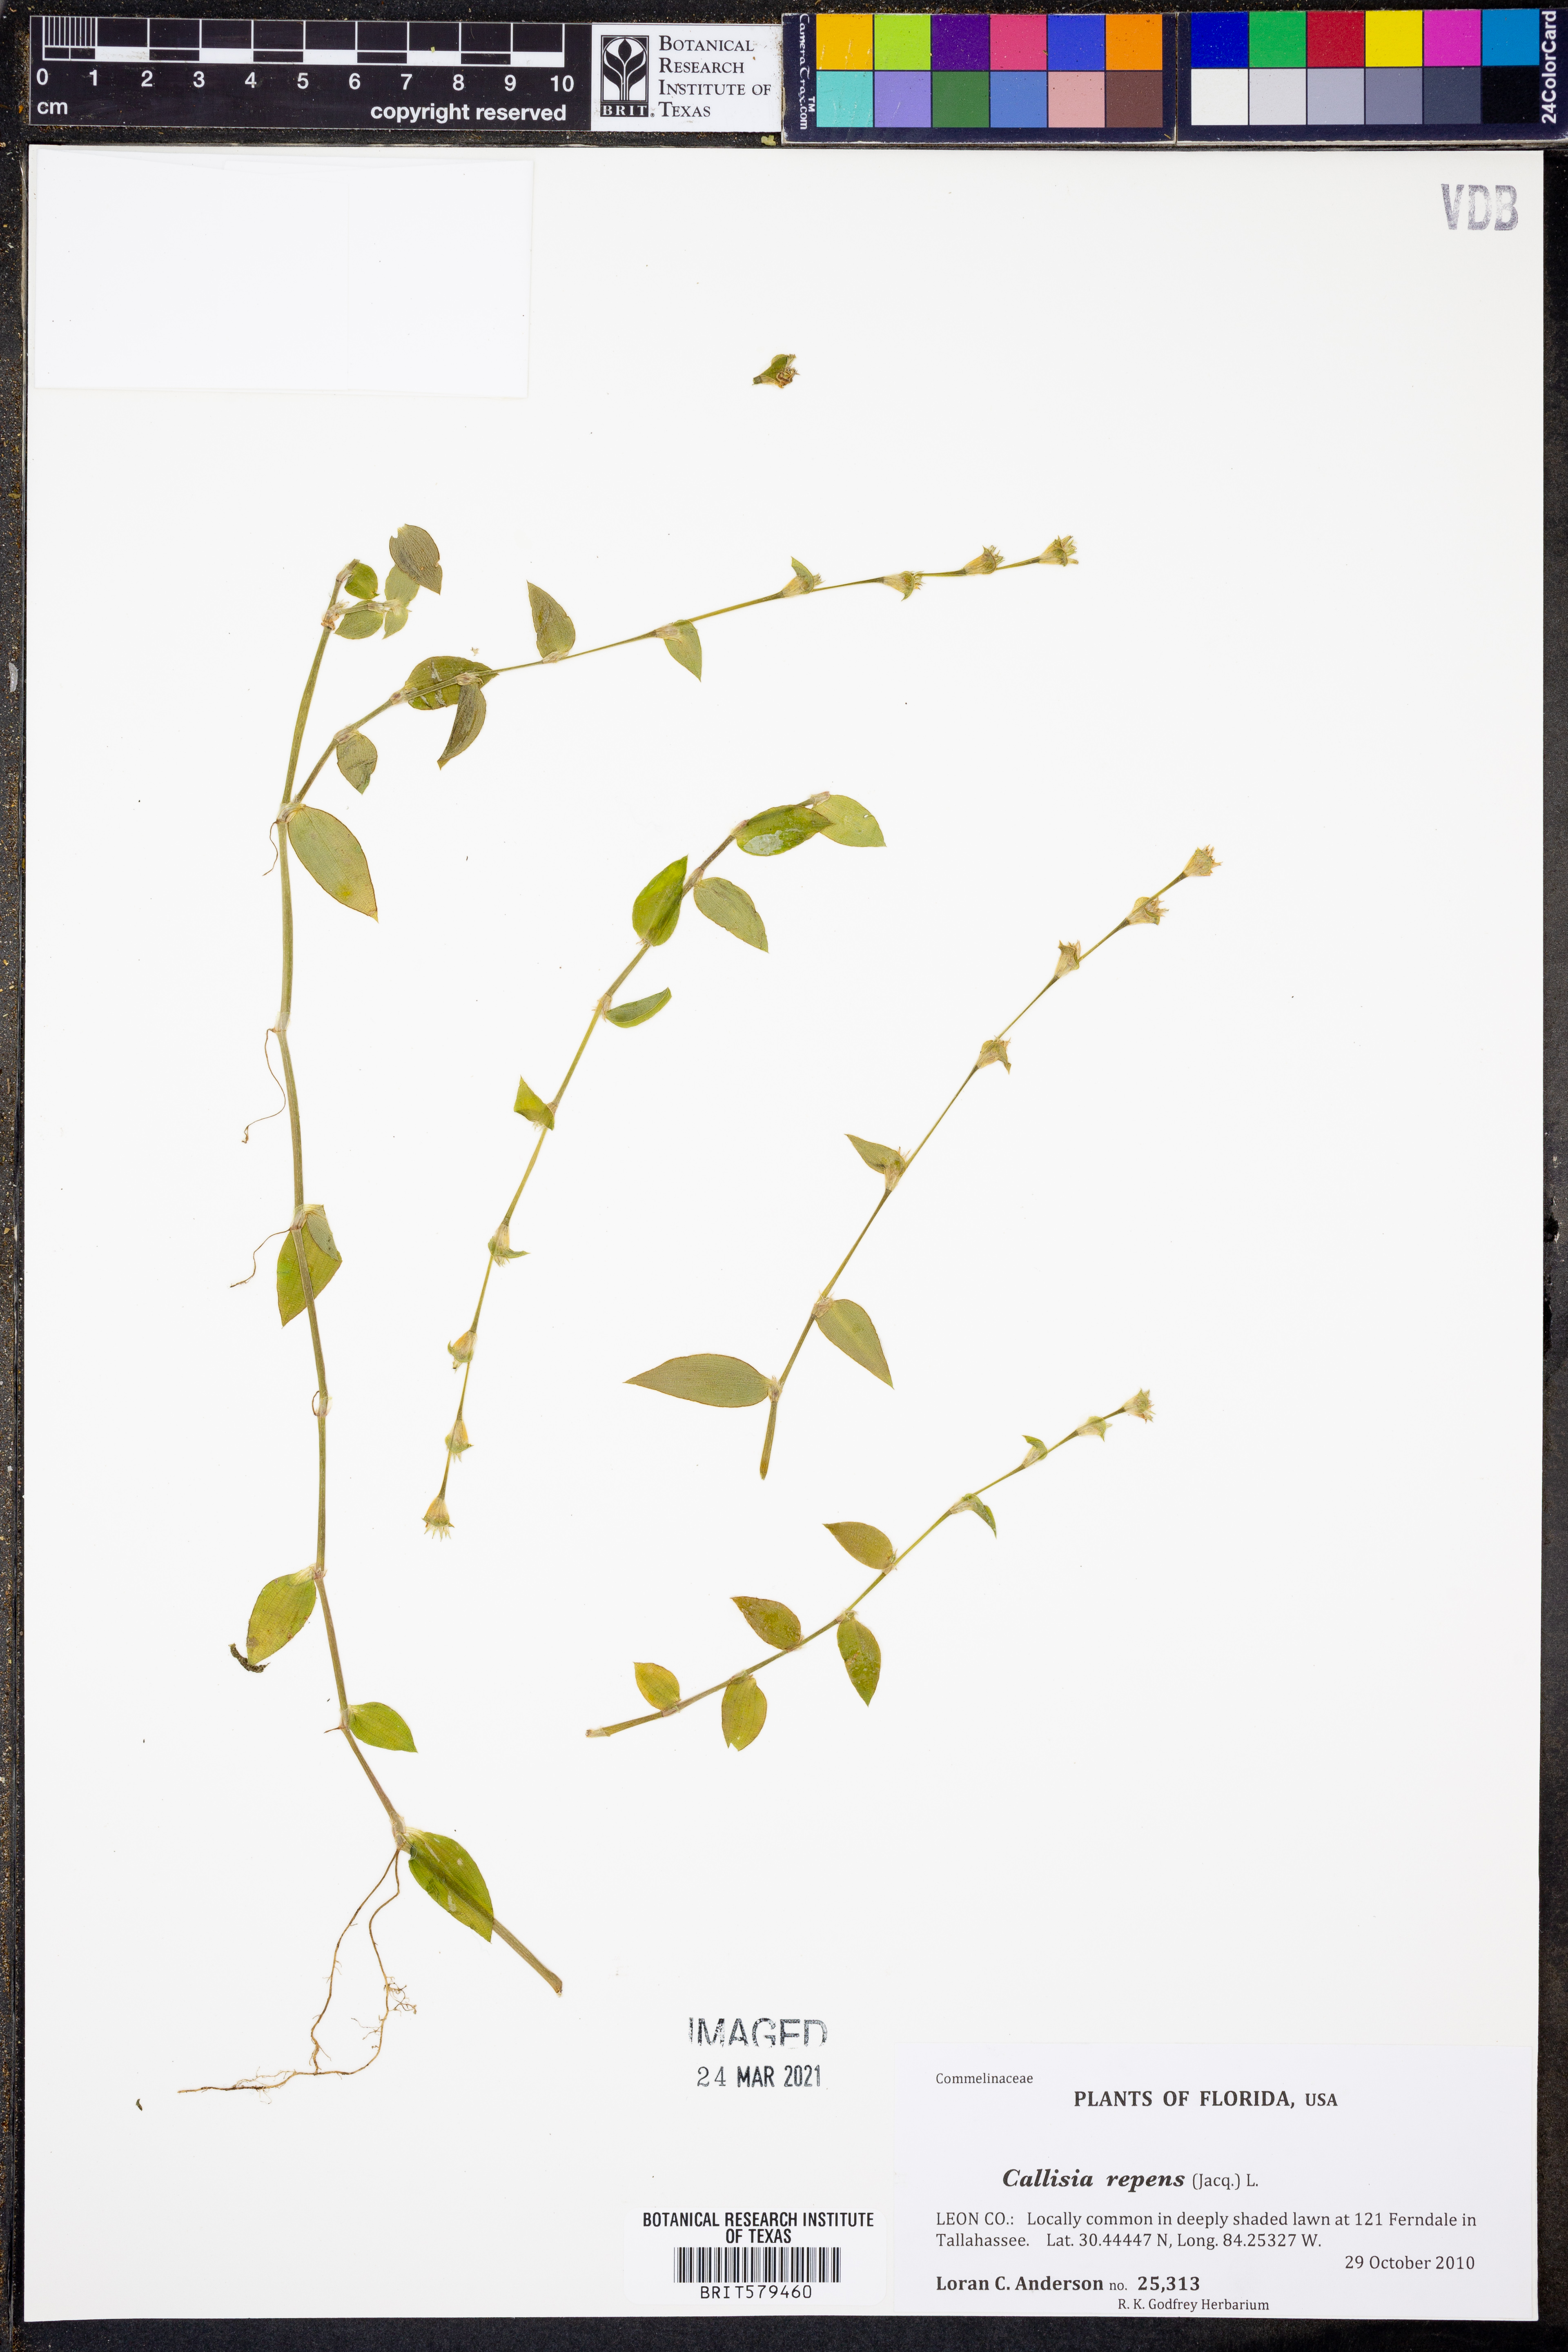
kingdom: Plantae
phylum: Tracheophyta
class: Liliopsida
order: Commelinales
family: Commelinaceae
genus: Callisia
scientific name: Callisia repens
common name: Creeping inchplant
